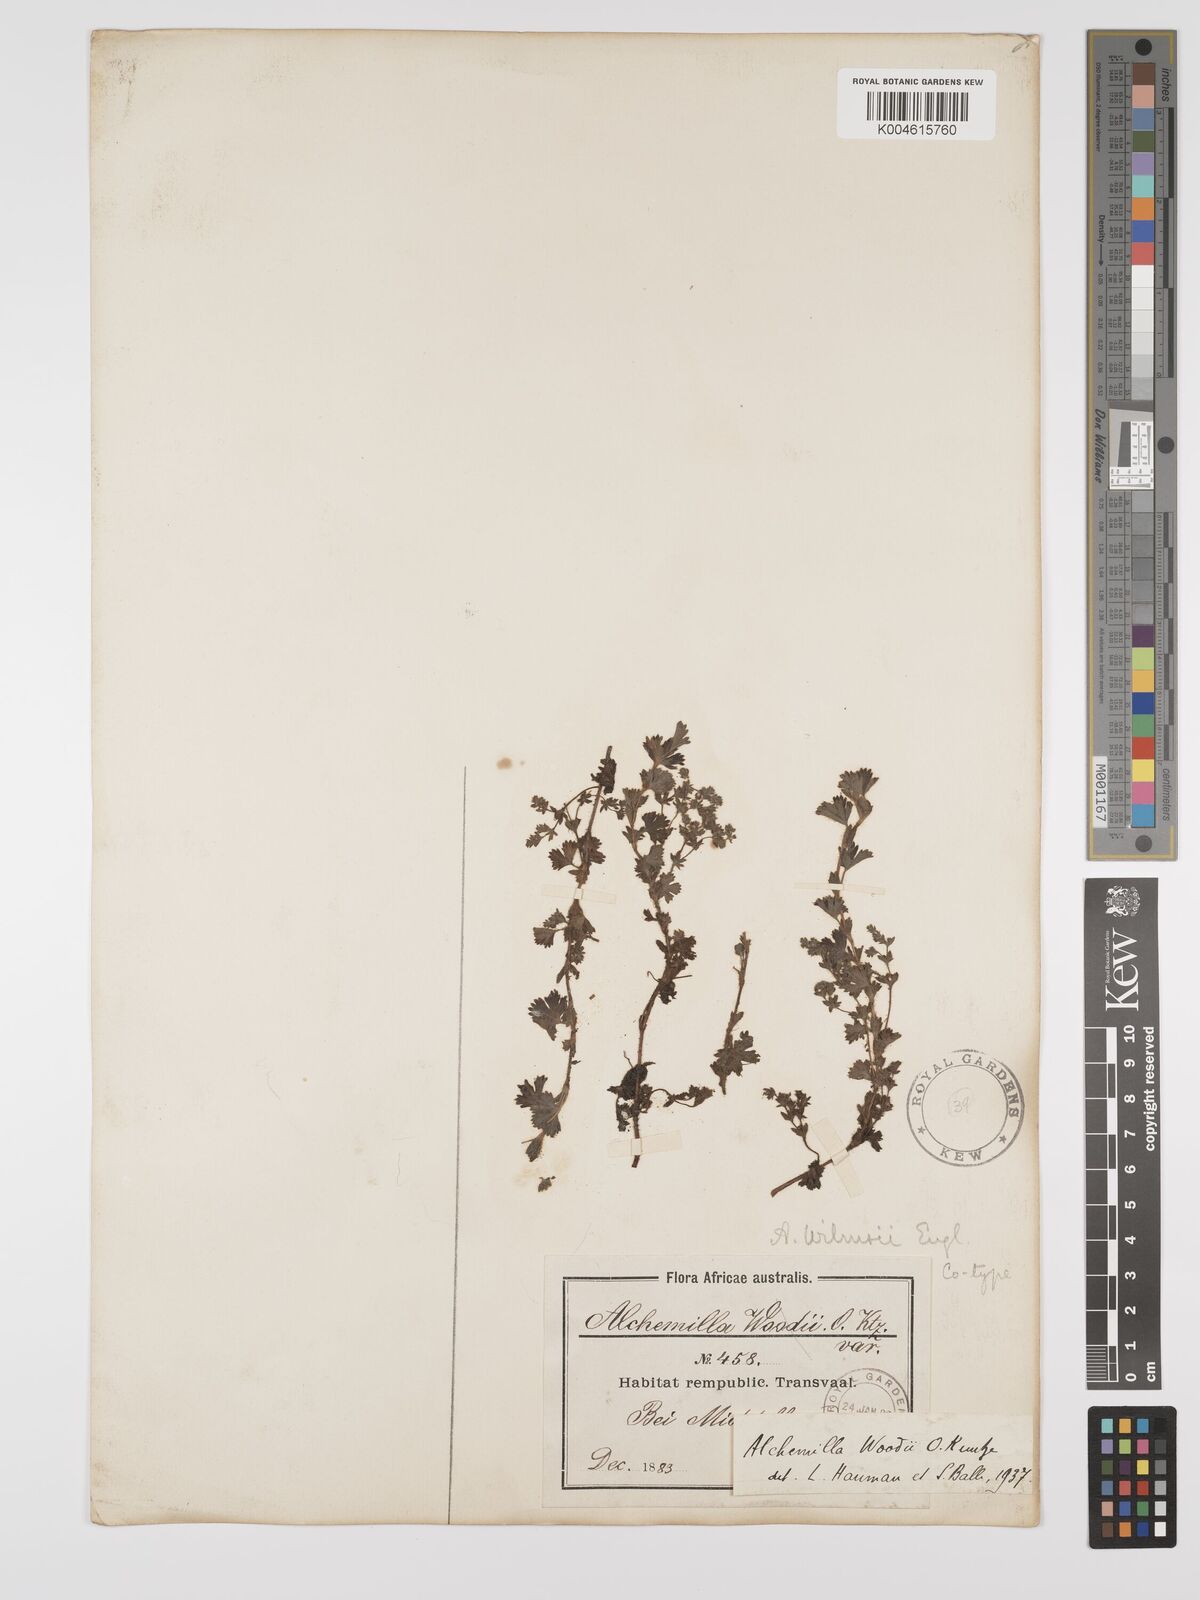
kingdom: Plantae
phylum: Tracheophyta
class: Magnoliopsida
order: Rosales
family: Rosaceae
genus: Alchemilla
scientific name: Alchemilla woodii
